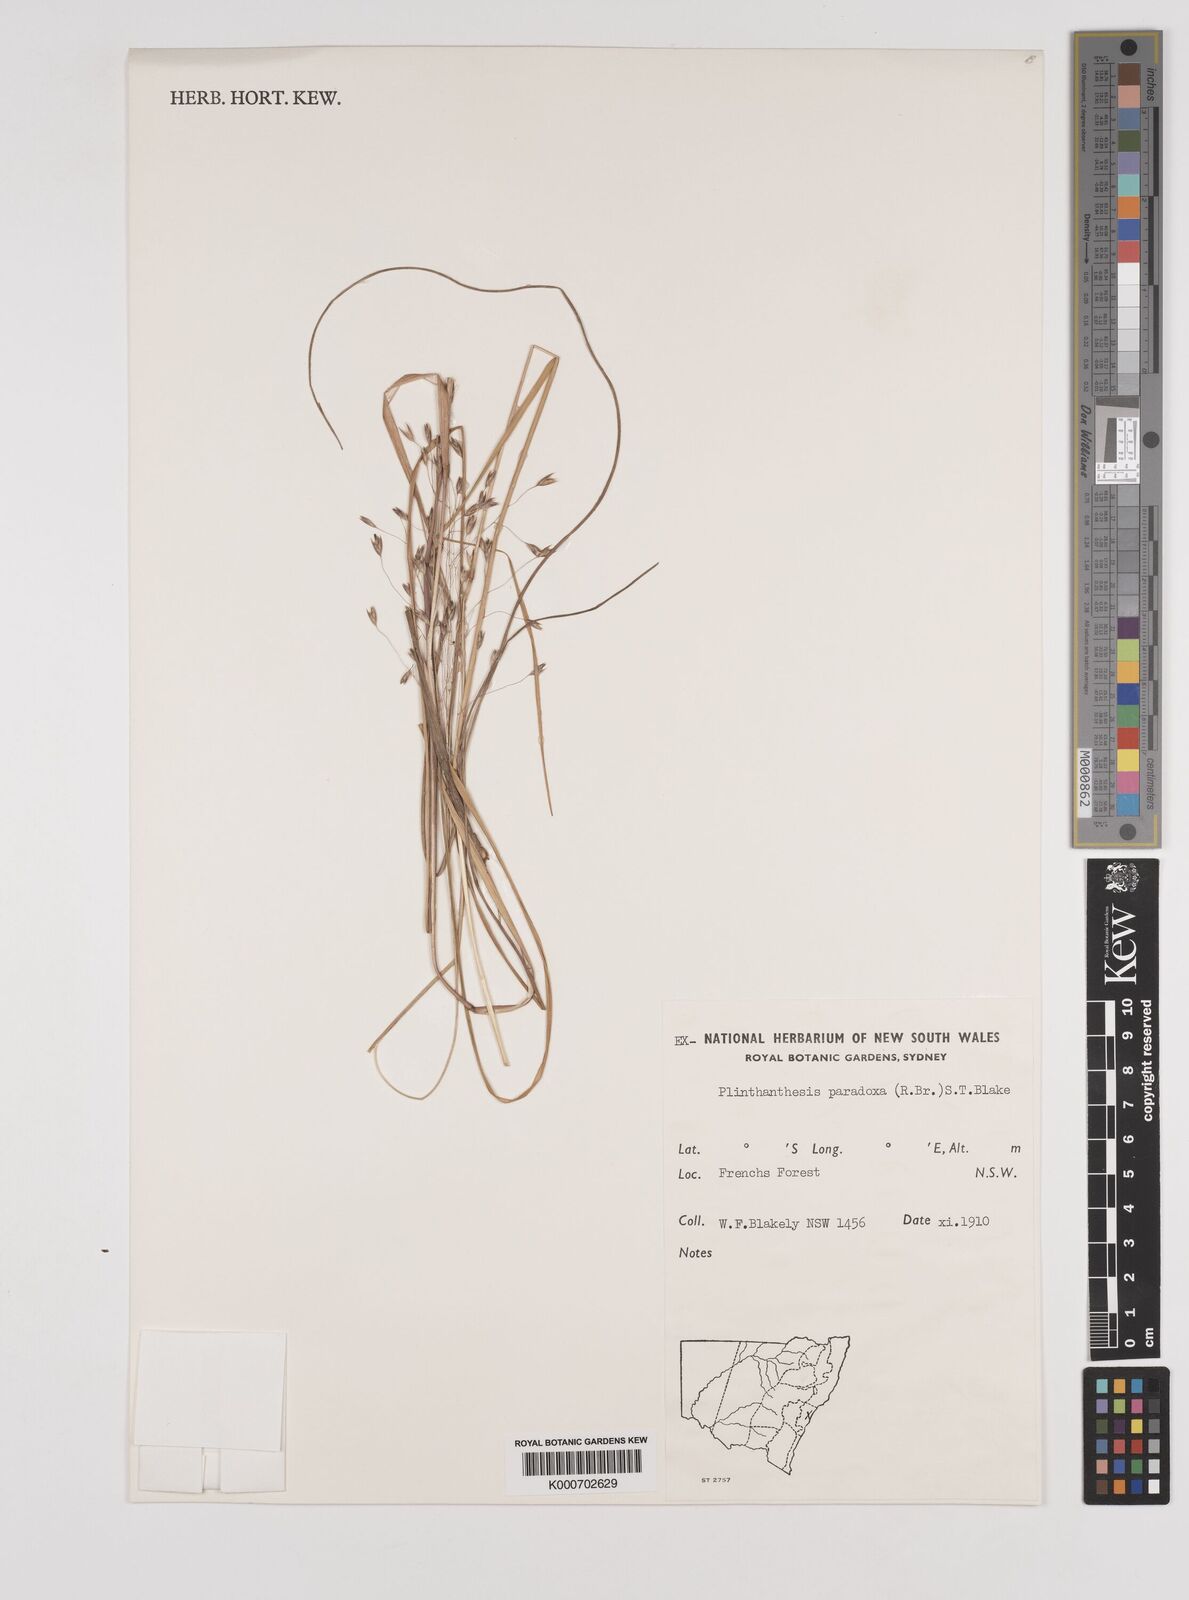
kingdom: Plantae
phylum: Tracheophyta
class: Liliopsida
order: Poales
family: Poaceae
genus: Plinthanthesis
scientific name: Plinthanthesis paradoxa
